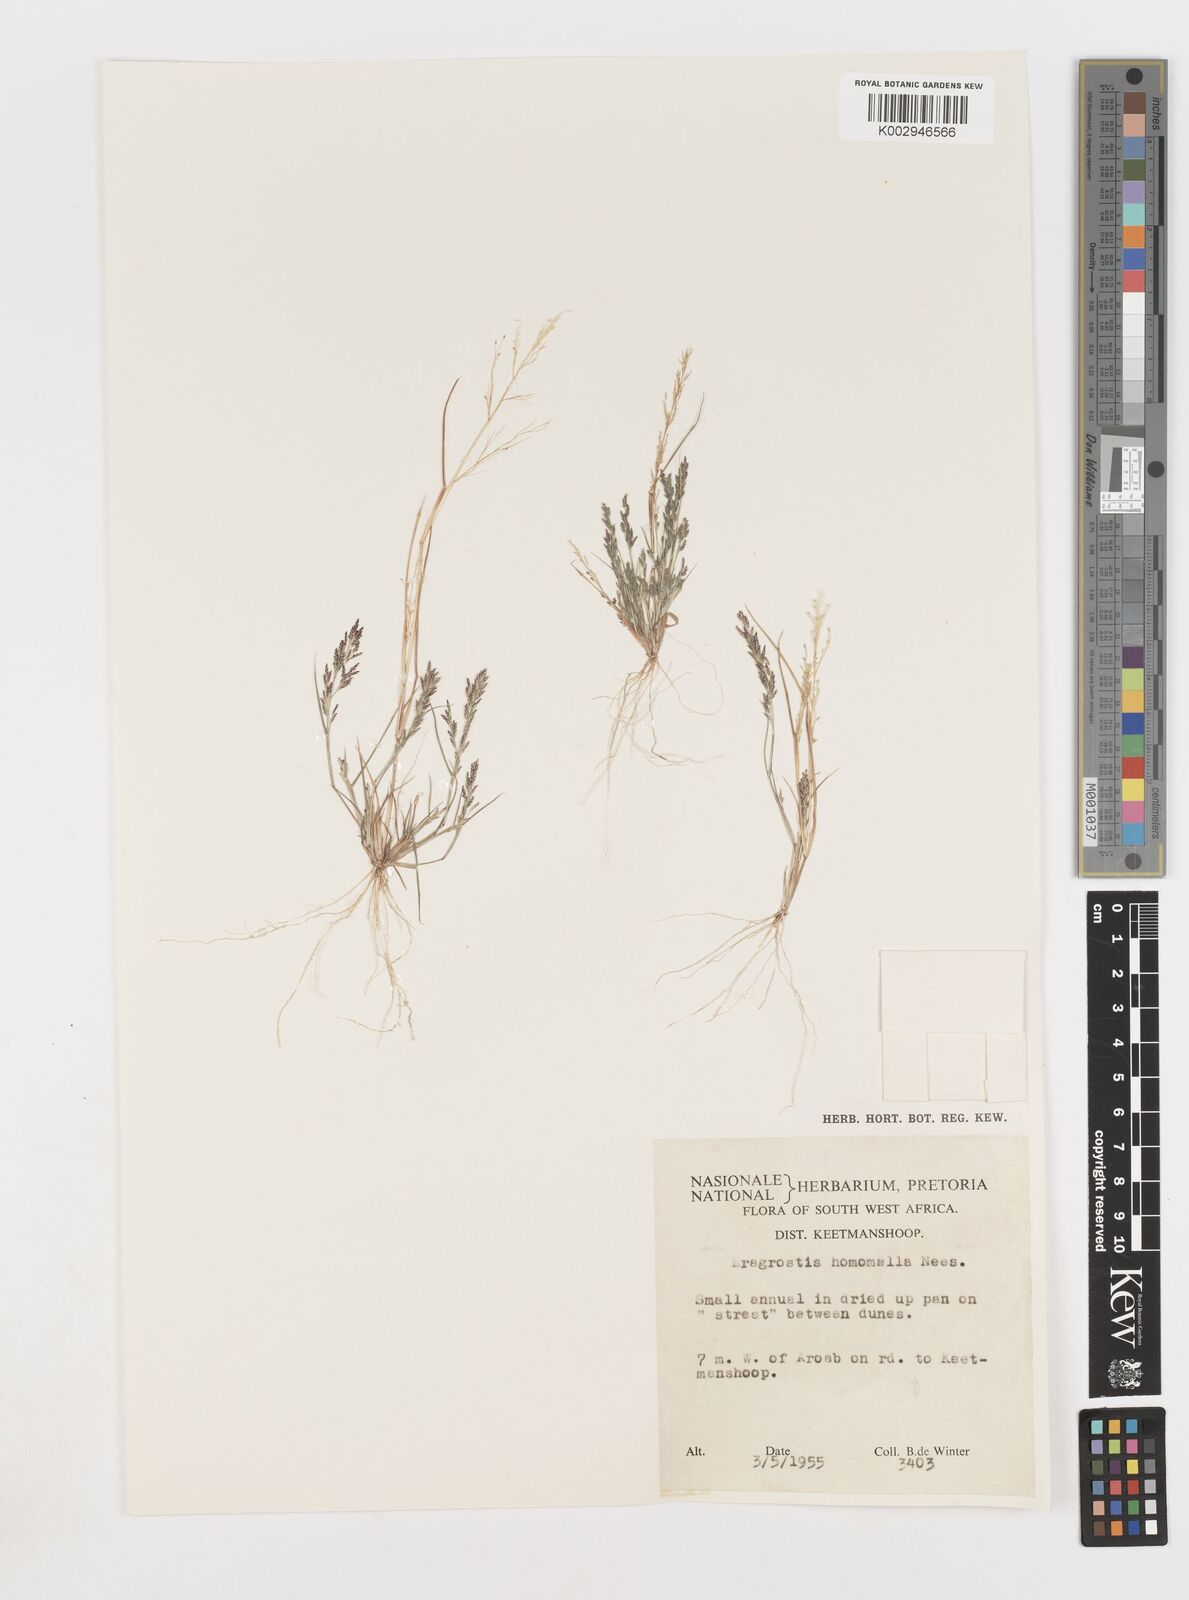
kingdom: Plantae
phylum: Tracheophyta
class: Liliopsida
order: Poales
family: Poaceae
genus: Eragrostis
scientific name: Eragrostis homomalla
